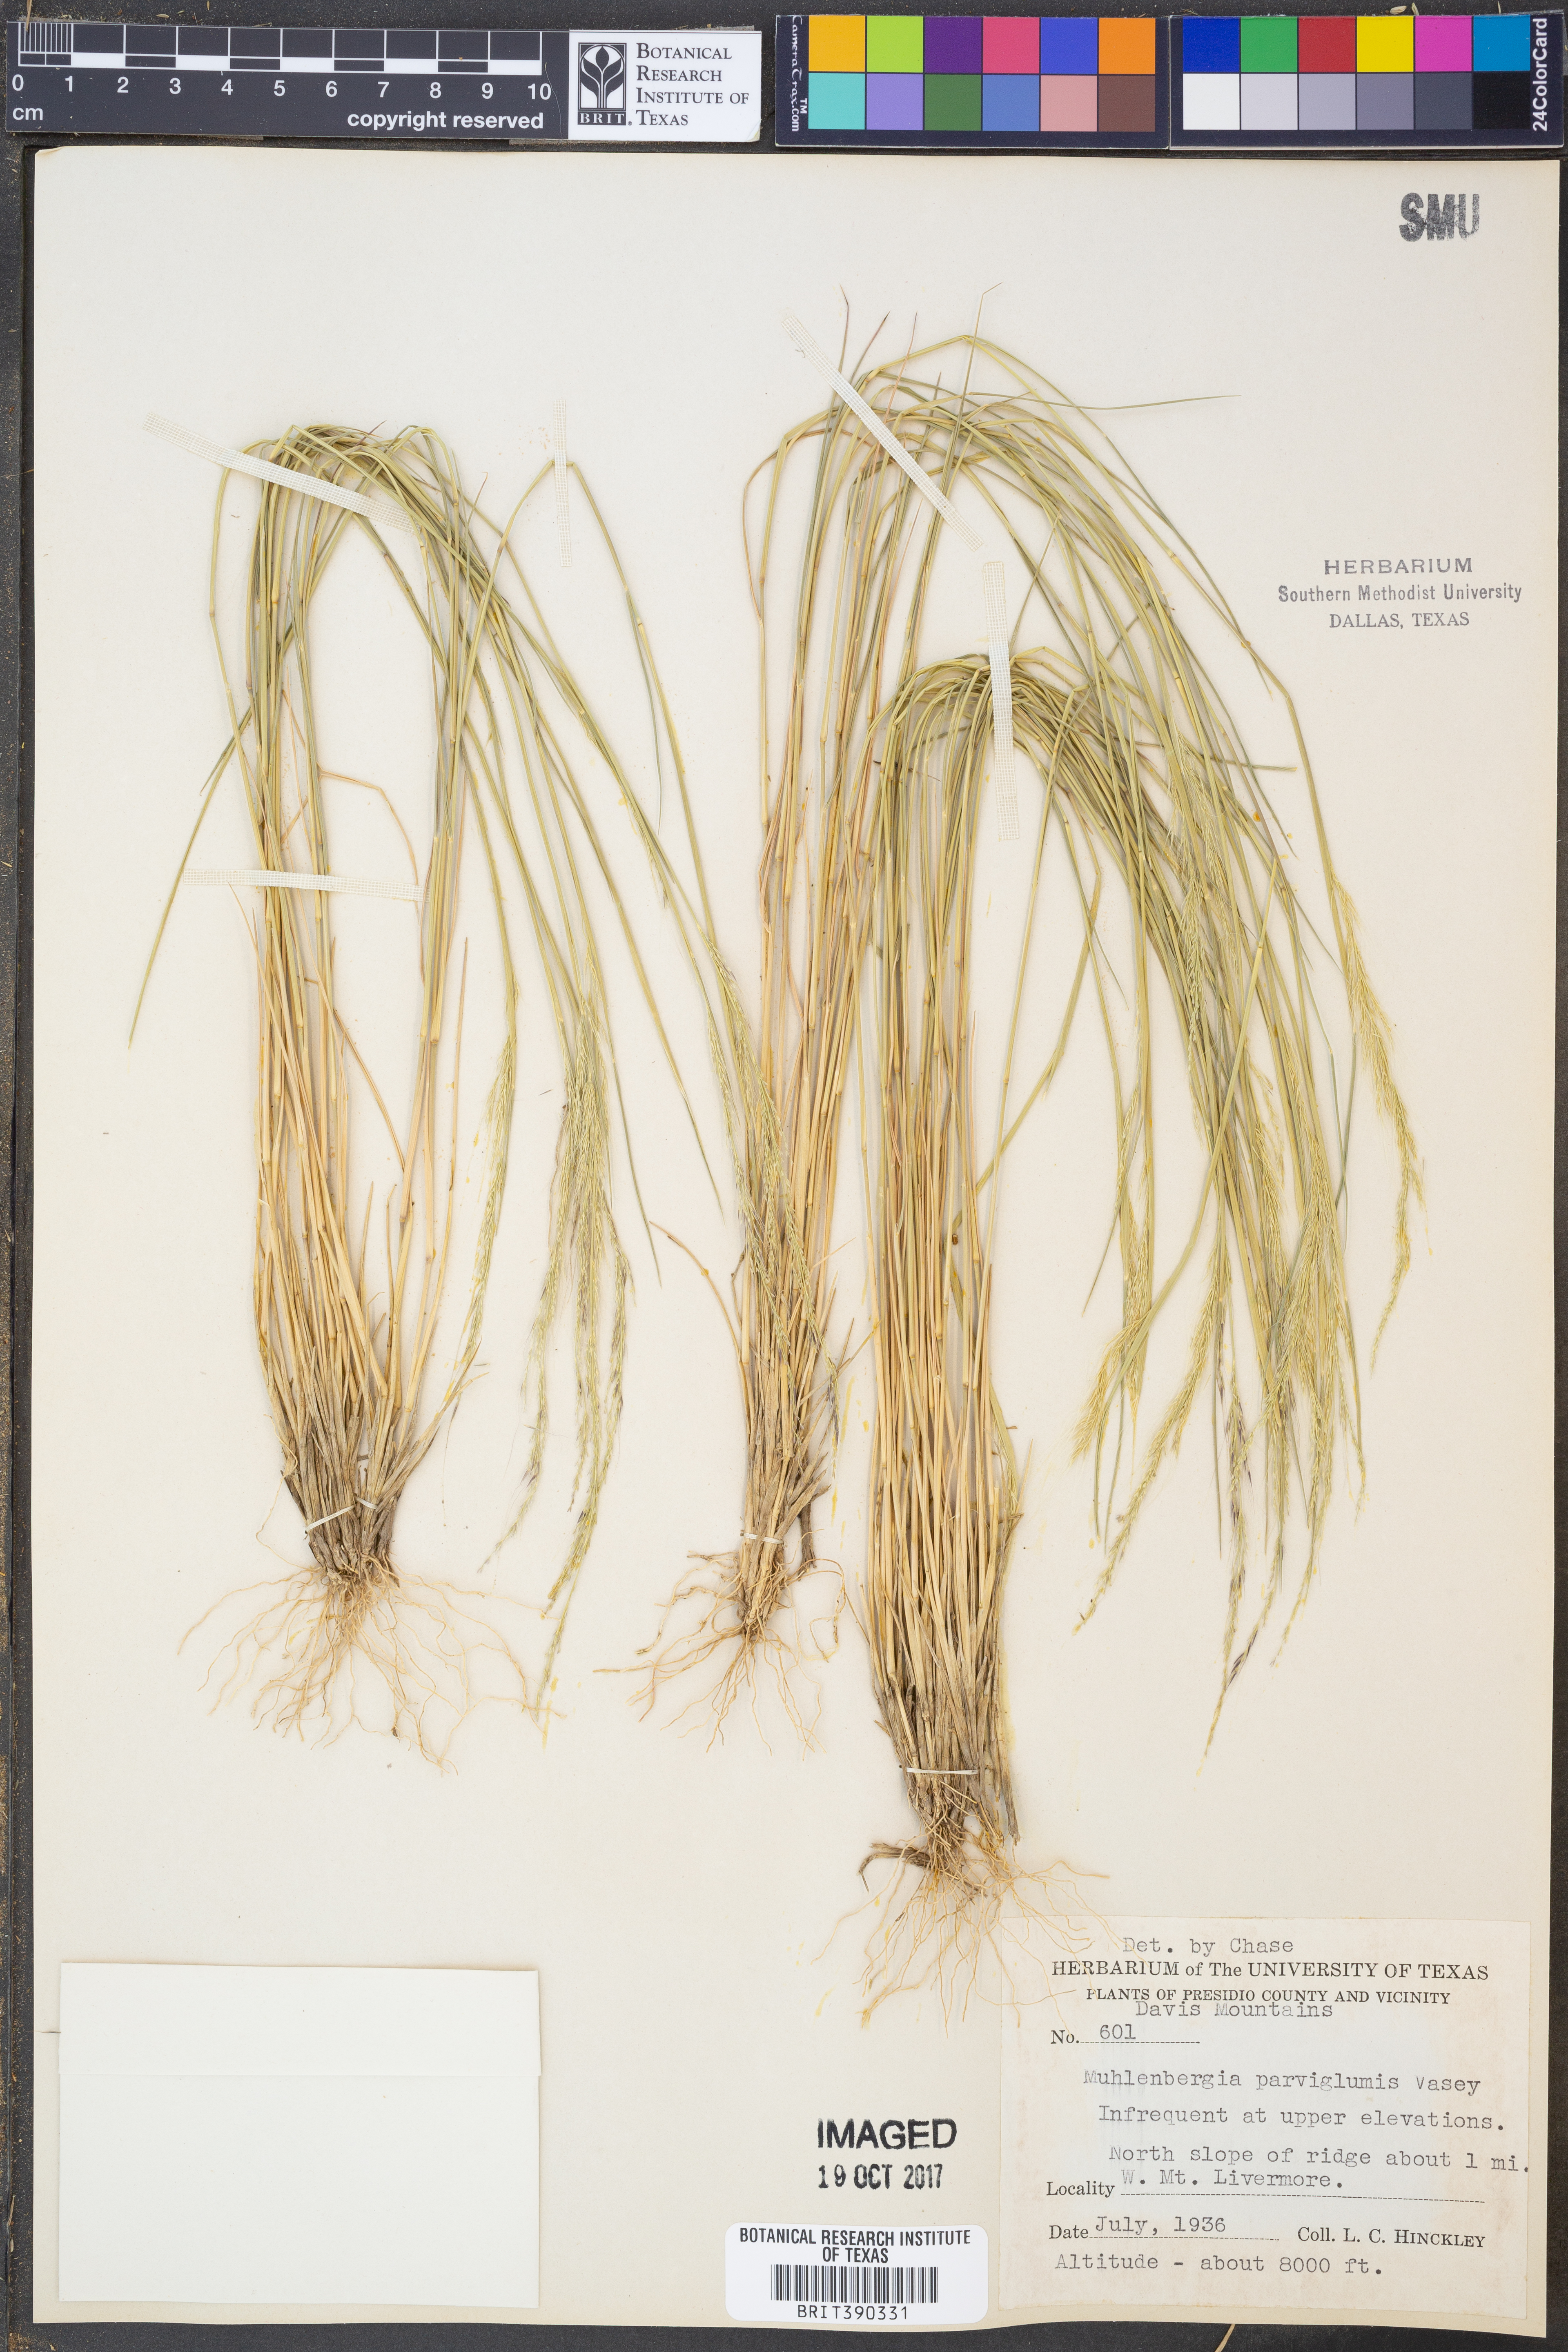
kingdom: Plantae
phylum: Tracheophyta
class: Liliopsida
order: Poales
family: Poaceae
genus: Muhlenbergia
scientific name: Muhlenbergia spiciformis
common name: Longawn muhly
